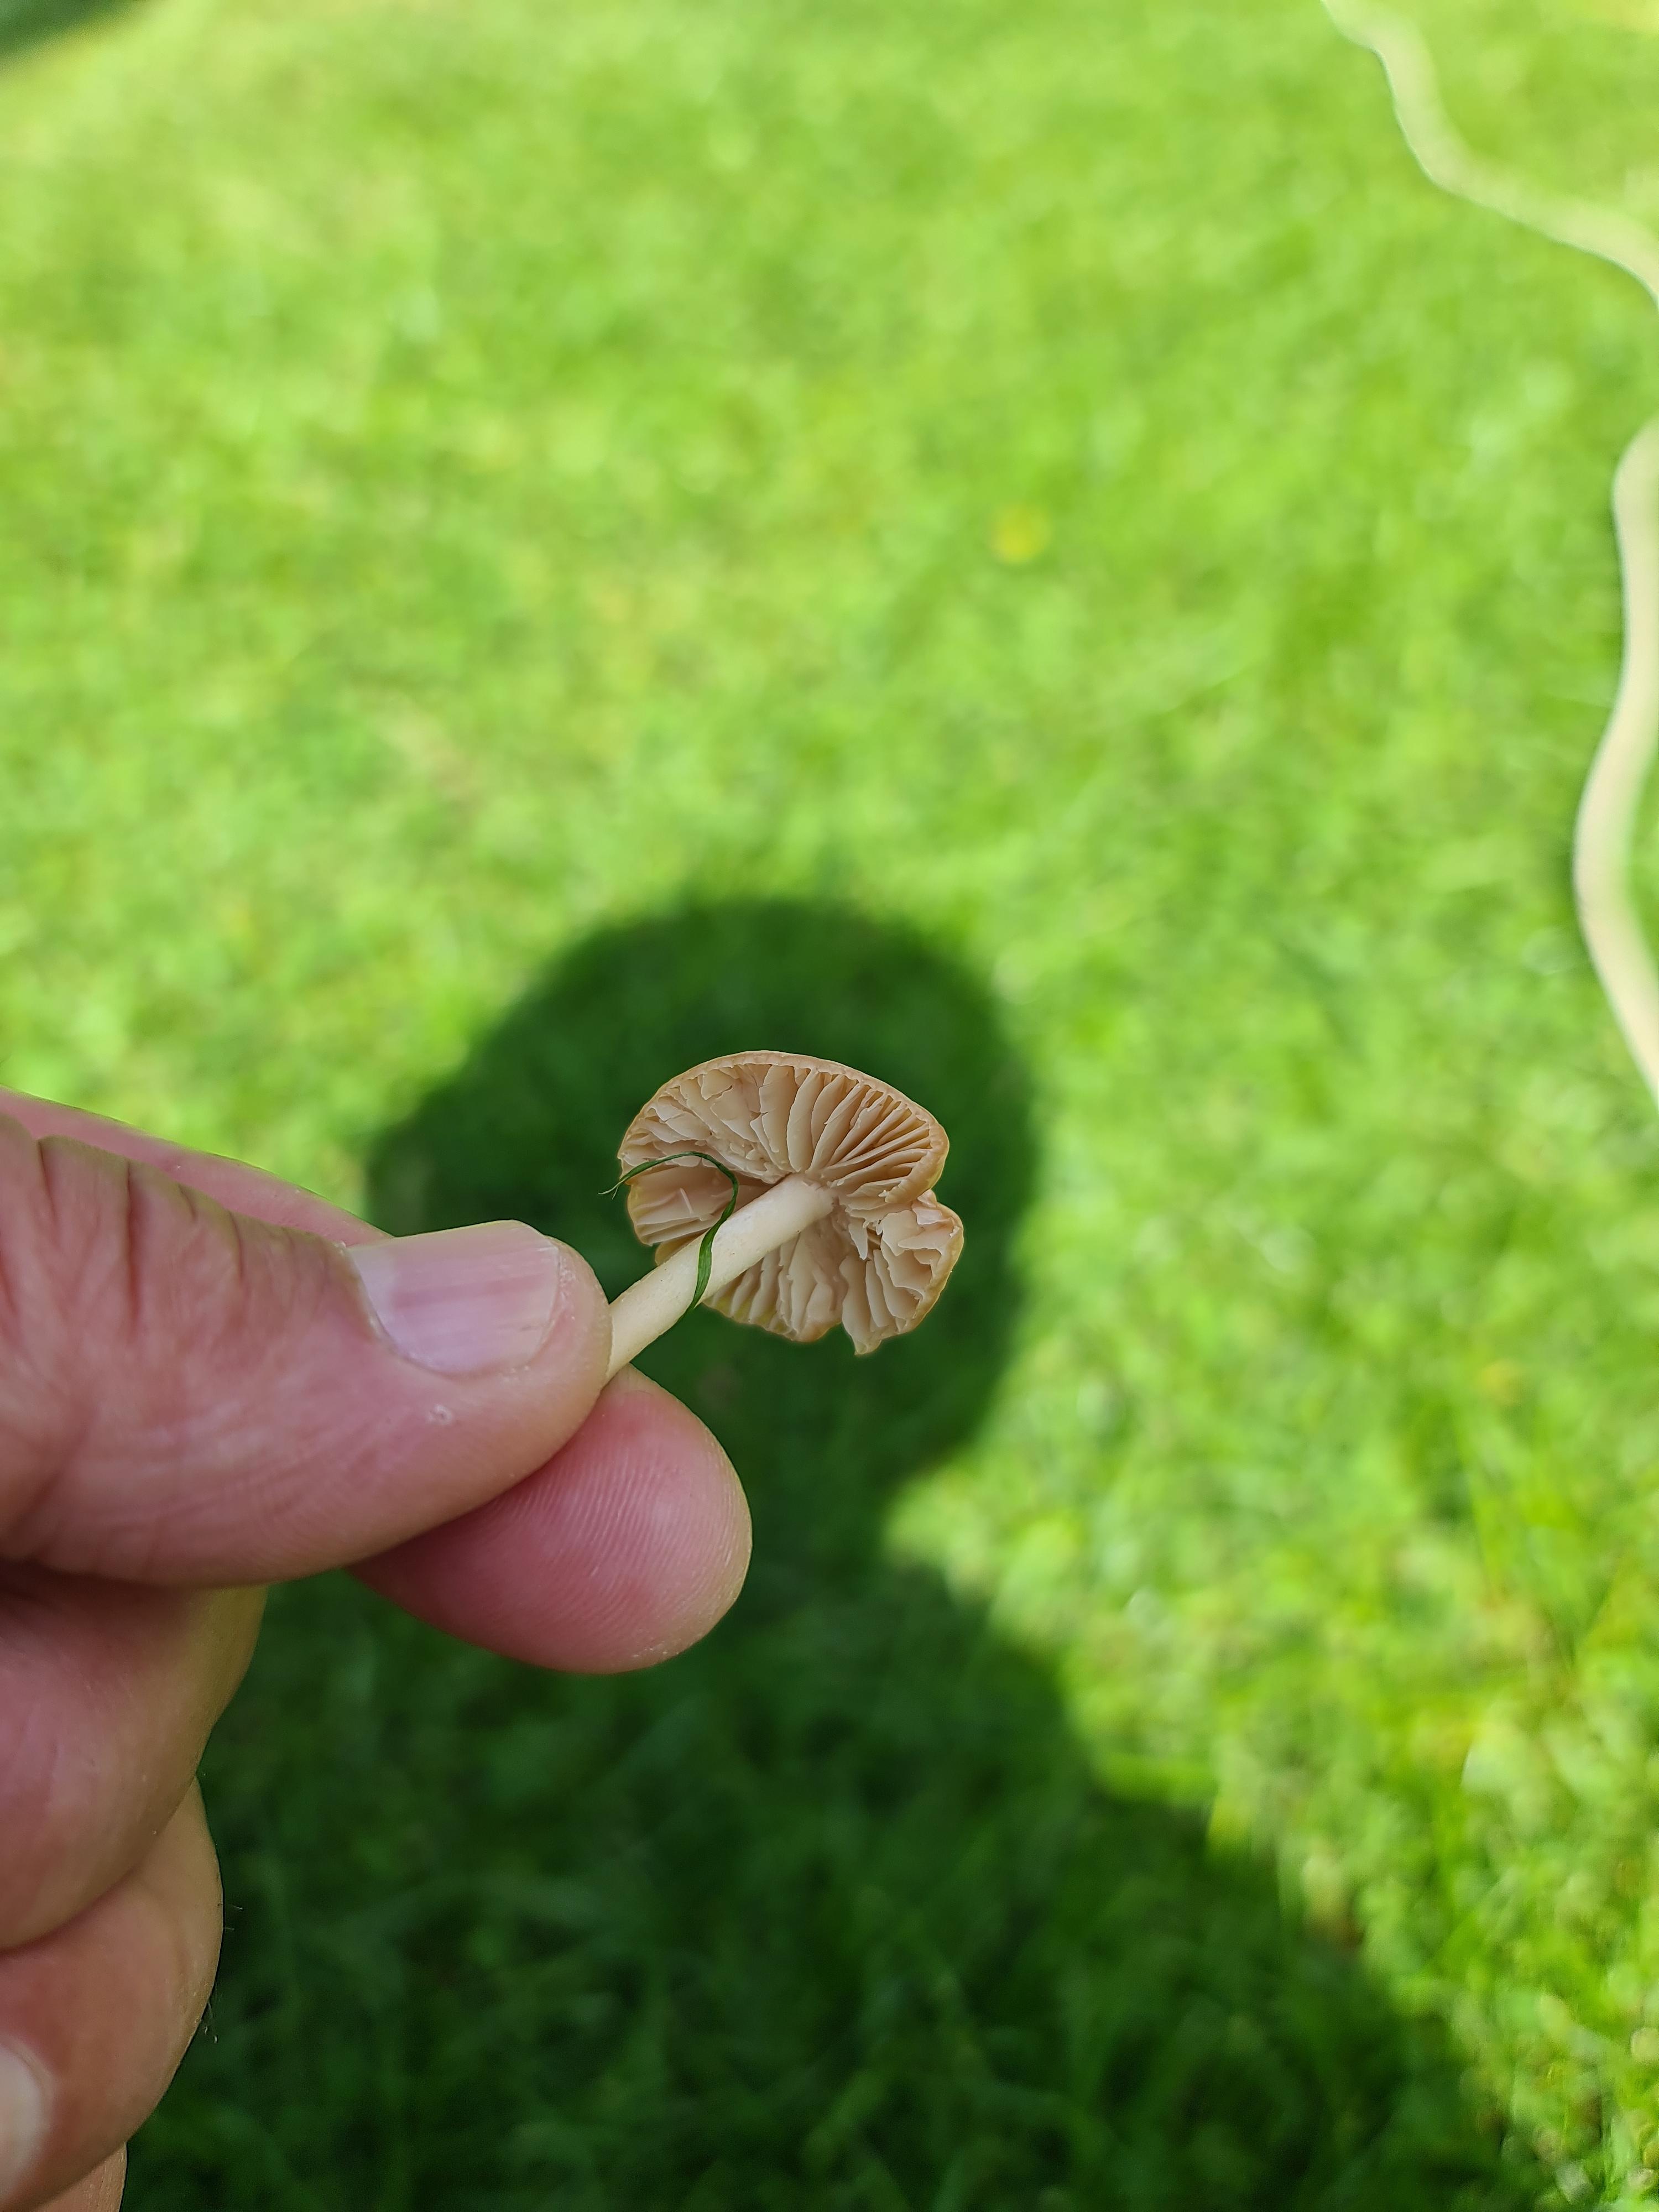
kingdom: Fungi
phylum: Basidiomycota
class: Agaricomycetes
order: Agaricales
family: Marasmiaceae
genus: Marasmius
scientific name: Marasmius oreades
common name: elledans-bruskhat
